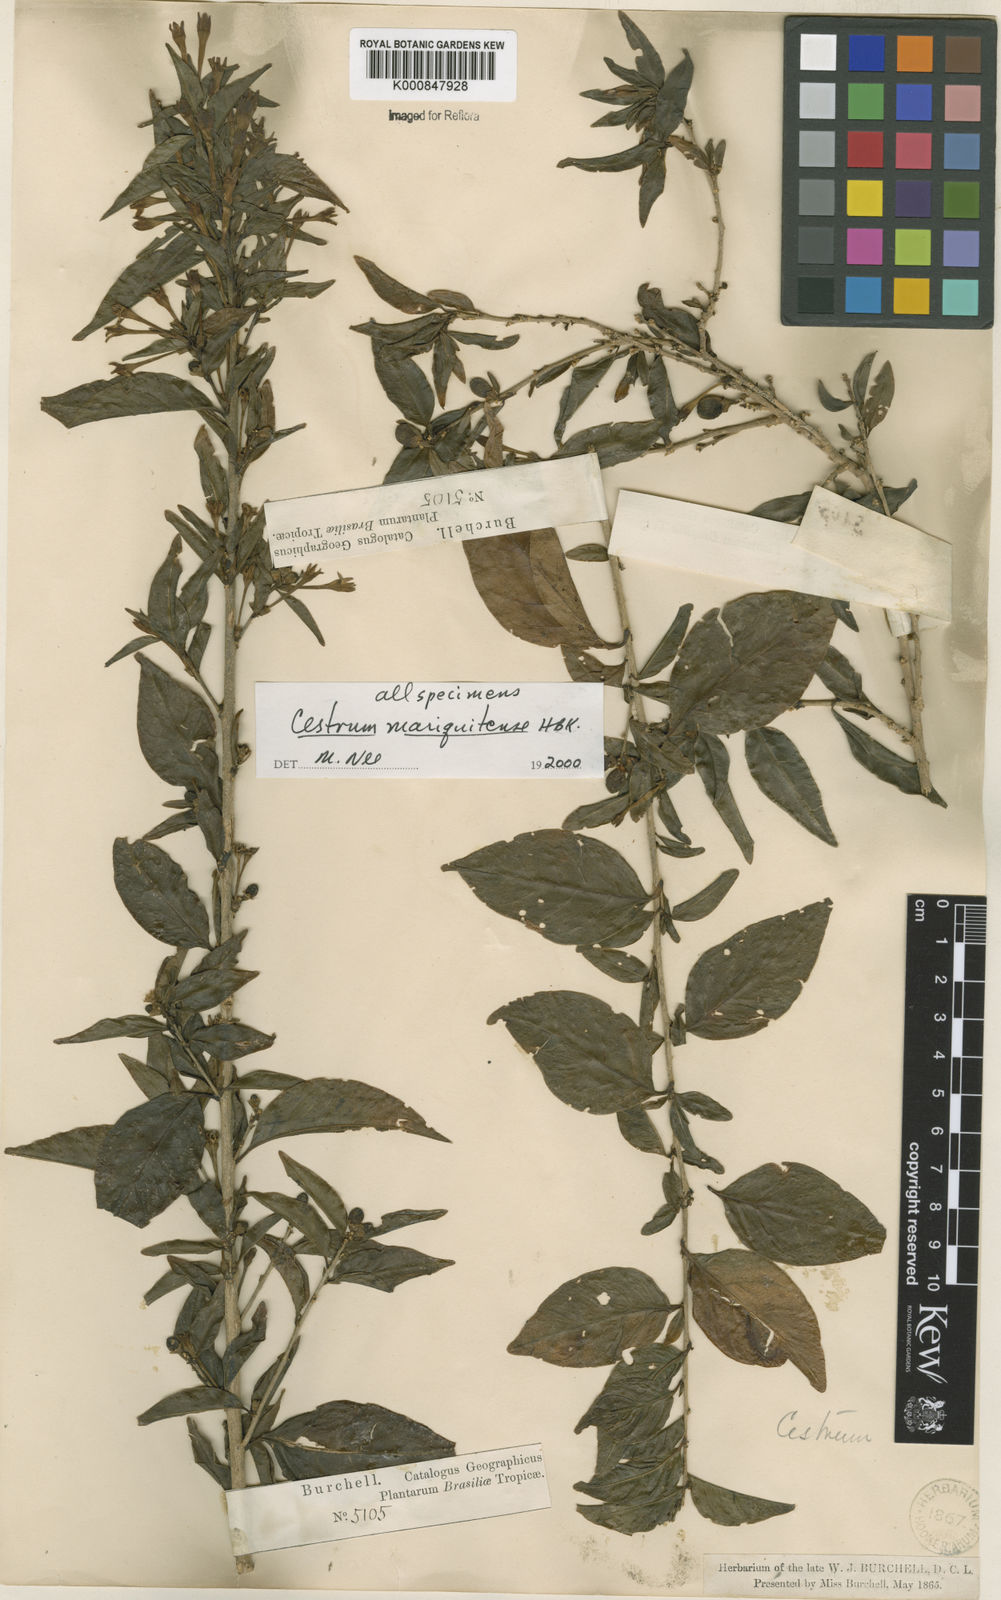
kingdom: Plantae
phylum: Tracheophyta
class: Magnoliopsida
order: Solanales
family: Solanaceae
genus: Cestrum
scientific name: Cestrum mariquitense
